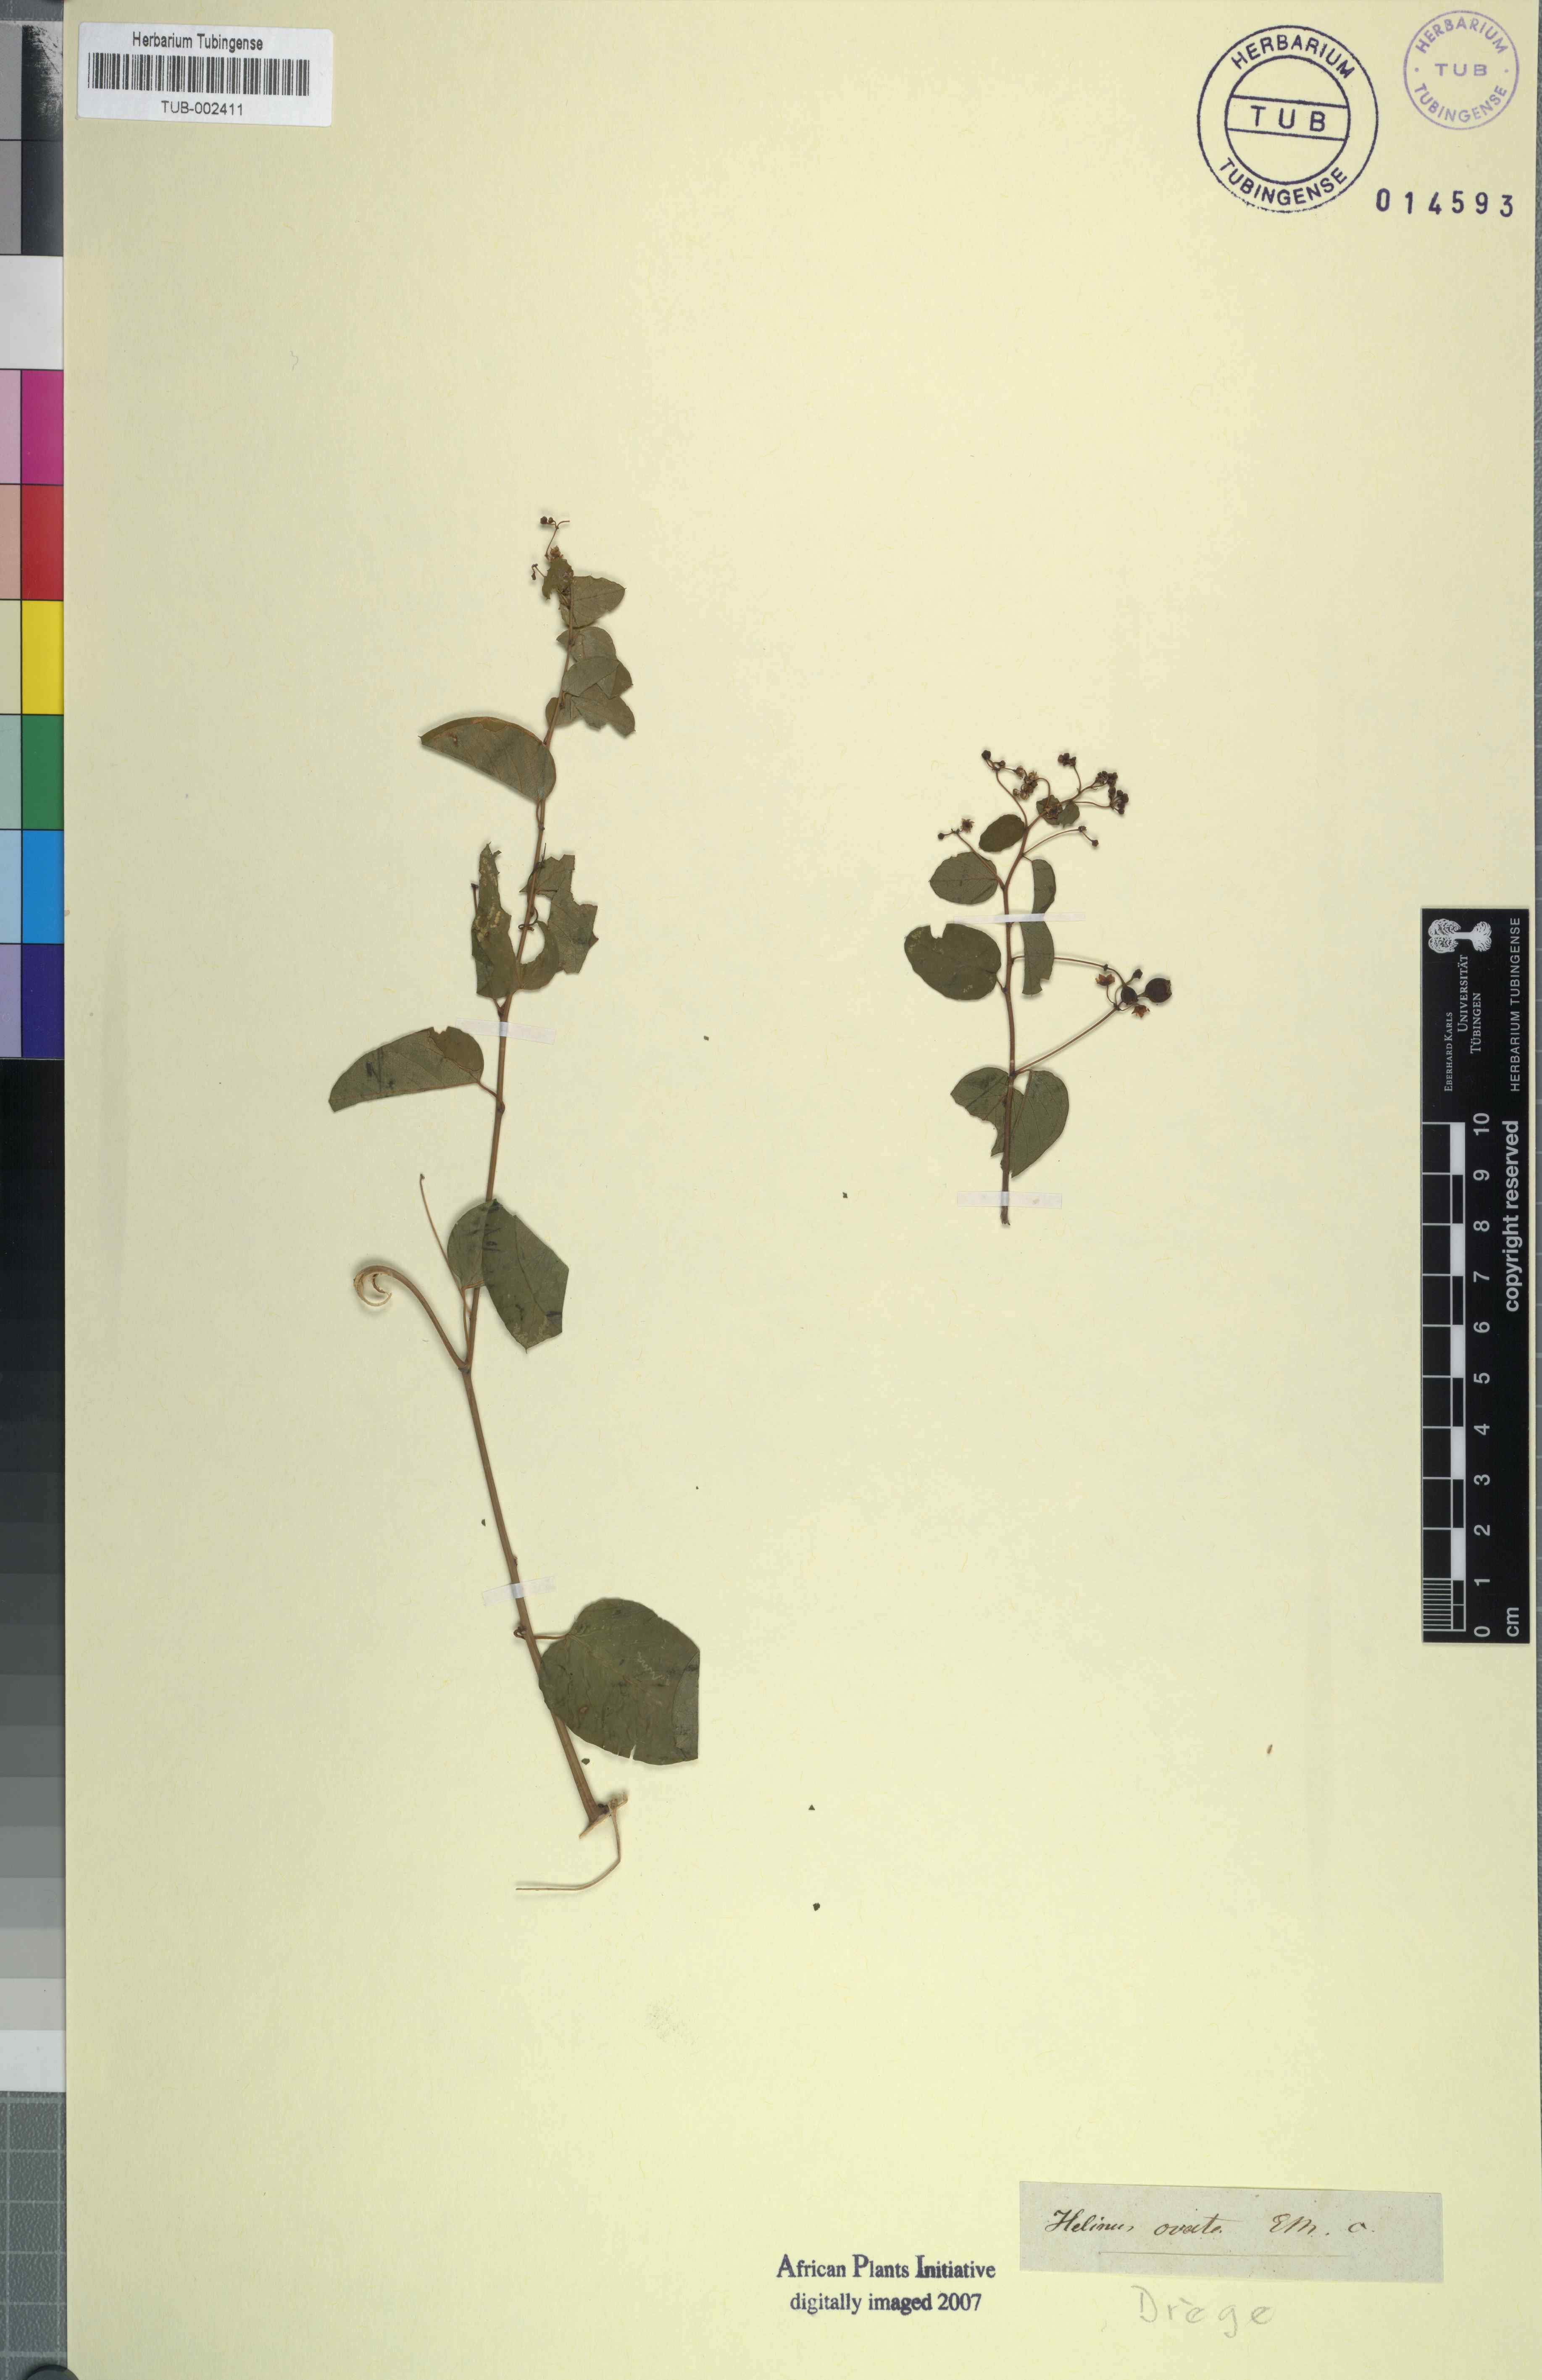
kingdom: Plantae
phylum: Tracheophyta
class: Magnoliopsida
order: Rosales
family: Rhamnaceae
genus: Helinus
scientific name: Helinus integrifolius
